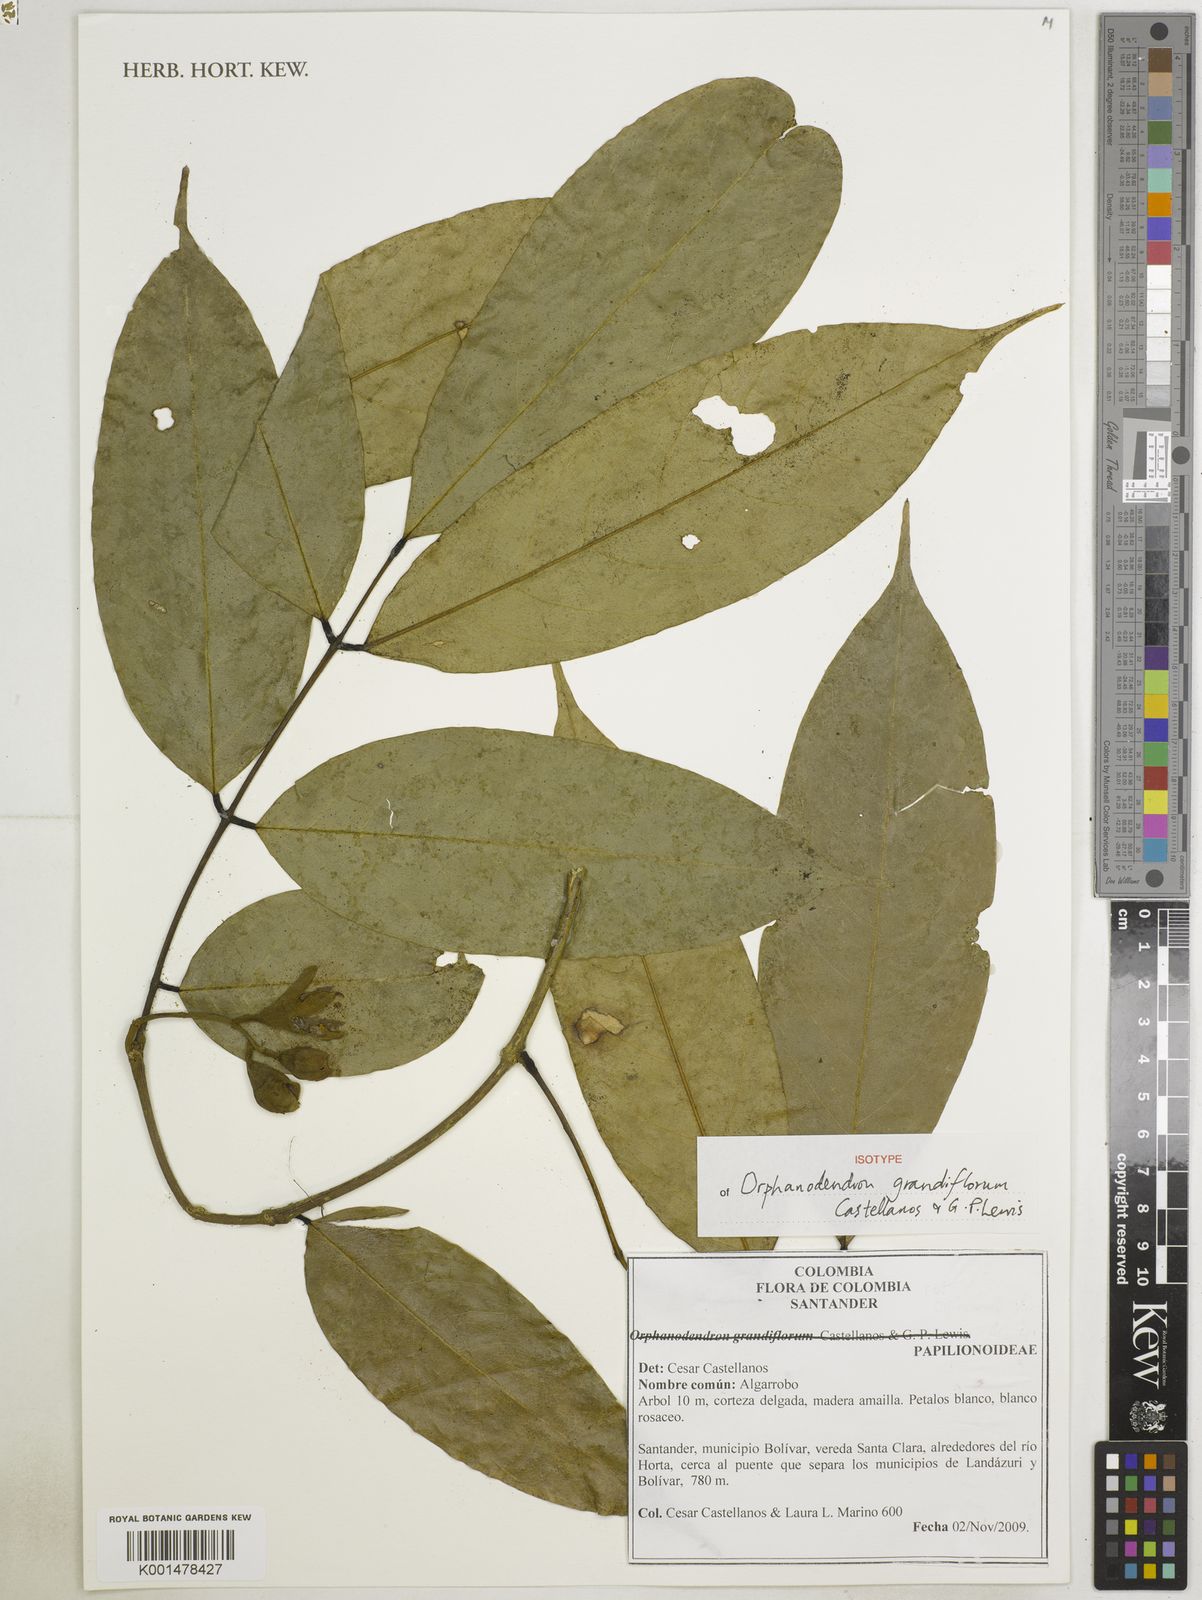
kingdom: Plantae
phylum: Tracheophyta
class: Magnoliopsida
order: Fabales
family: Fabaceae
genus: Orphanodendron
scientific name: Orphanodendron grandiflorum
